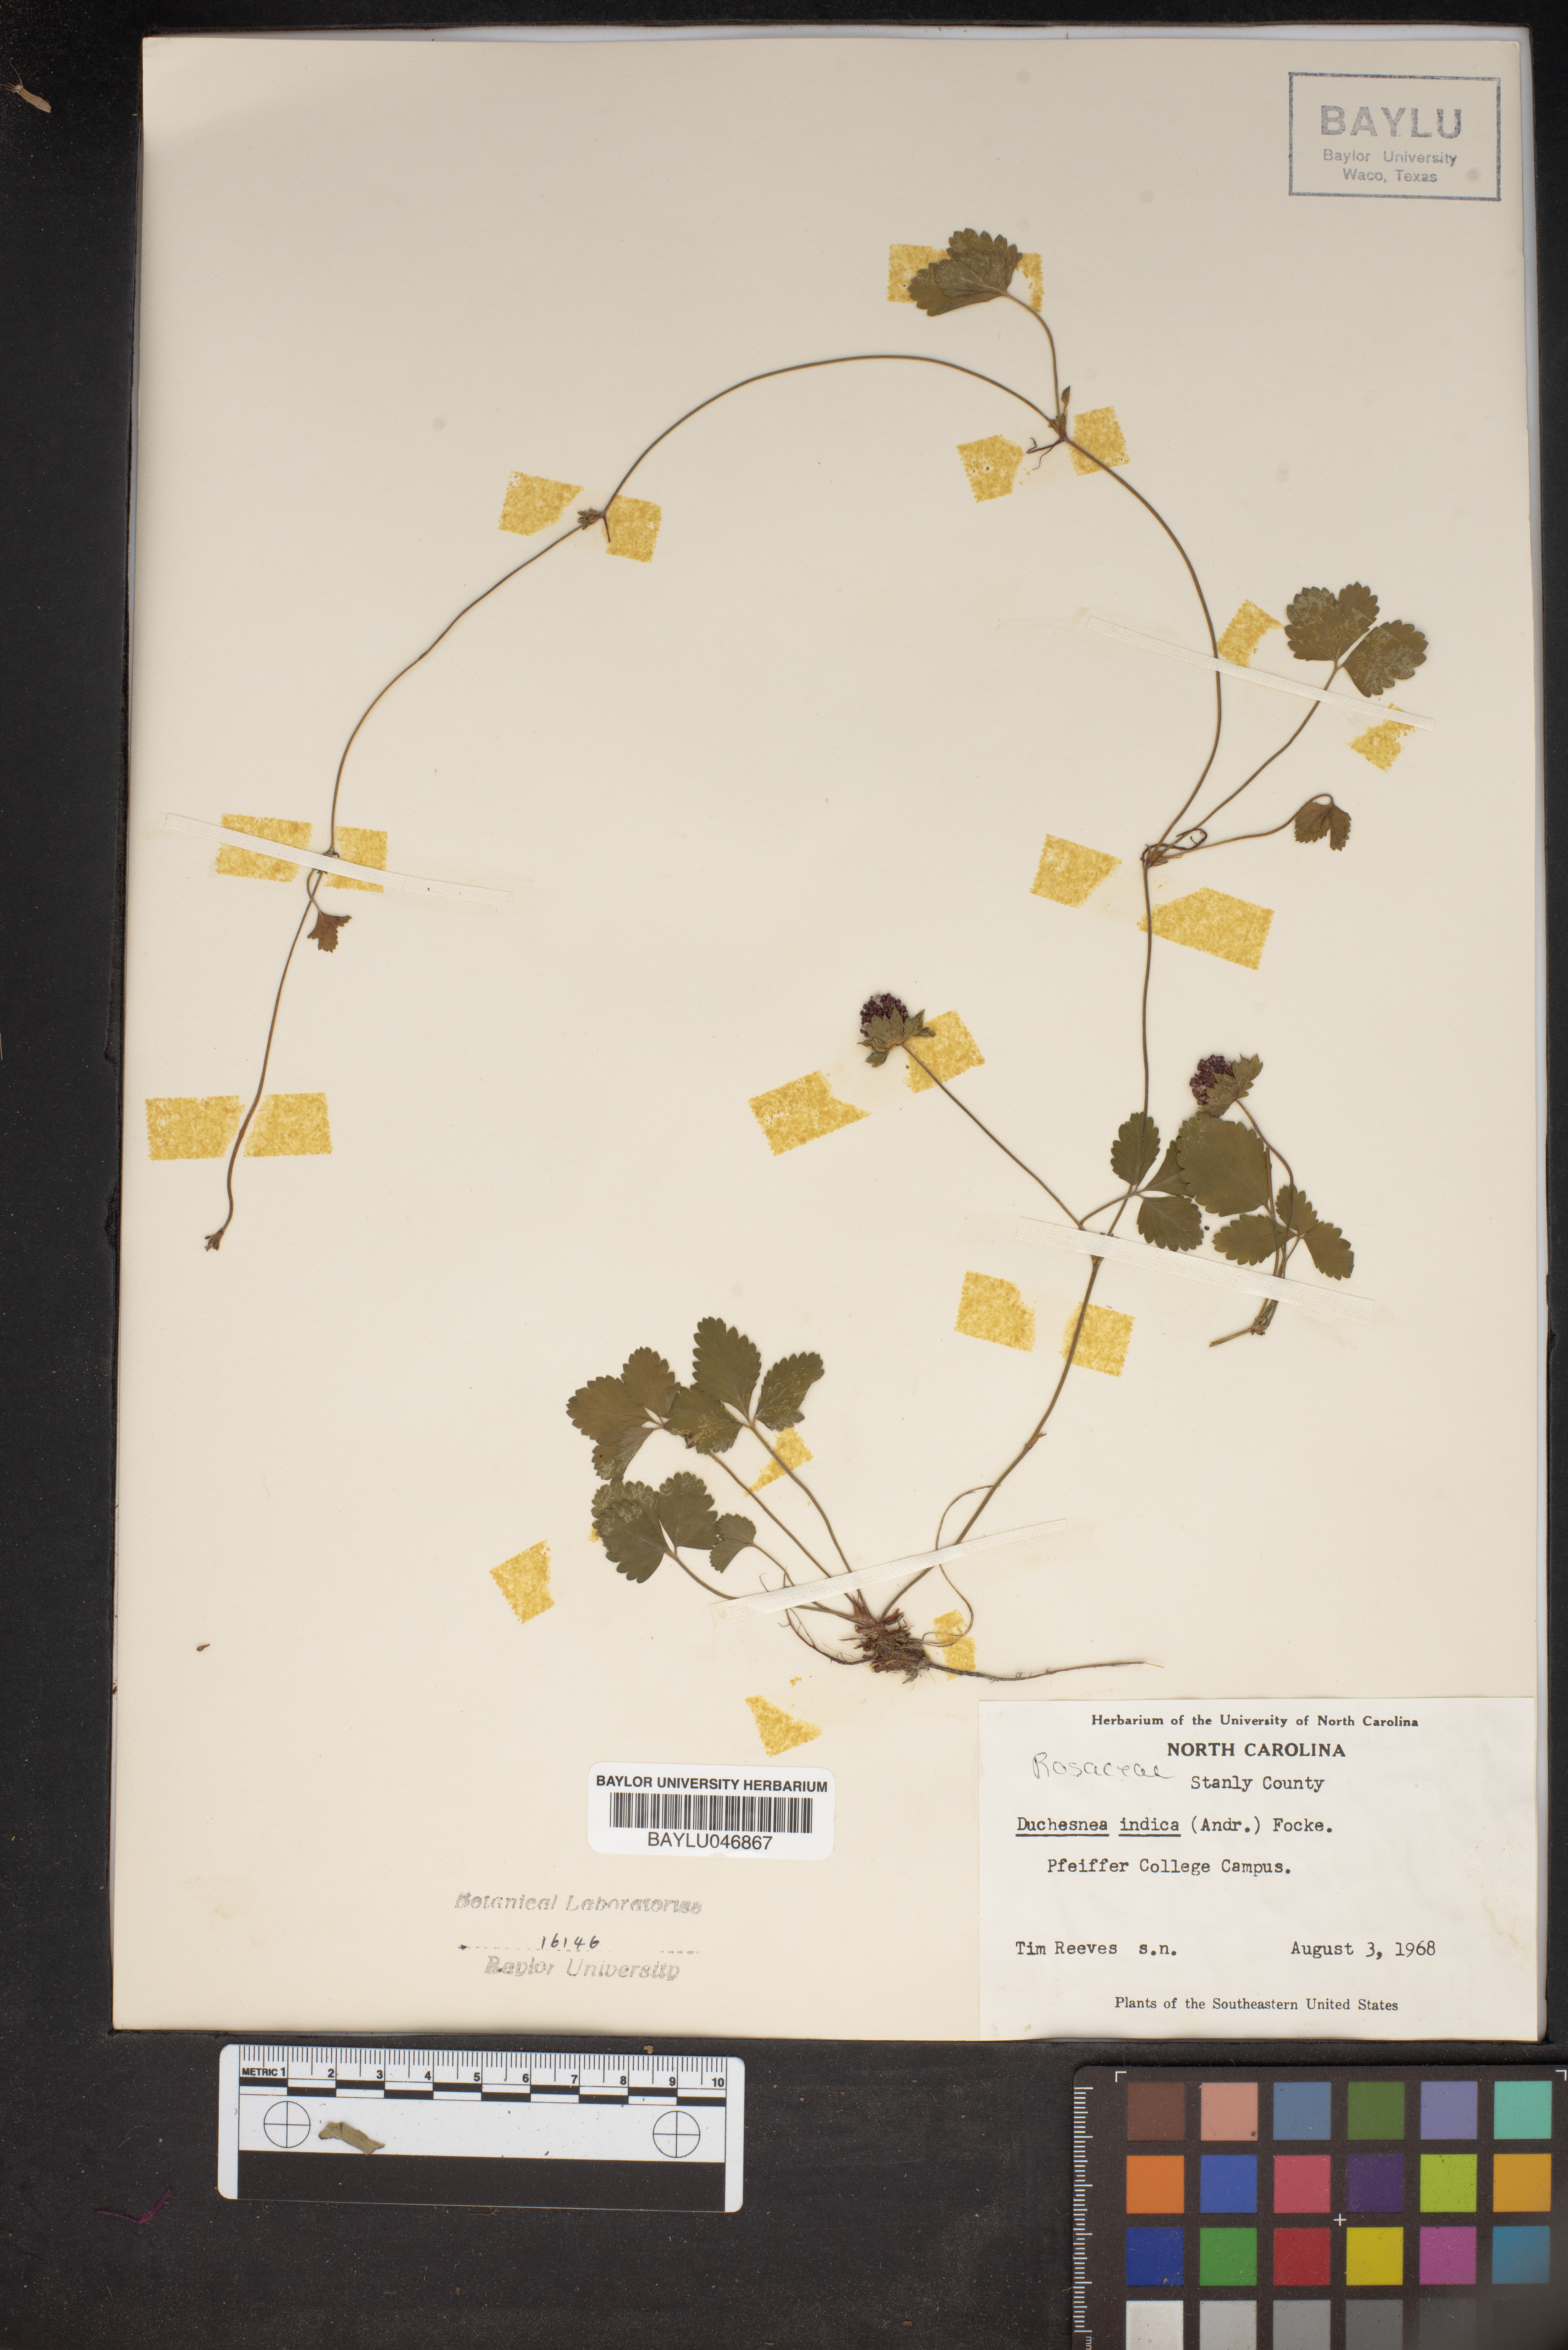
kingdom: Plantae
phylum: Tracheophyta
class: Magnoliopsida
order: Rosales
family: Rosaceae
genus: Potentilla
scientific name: Potentilla indica
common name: Yellow-flowered strawberry
